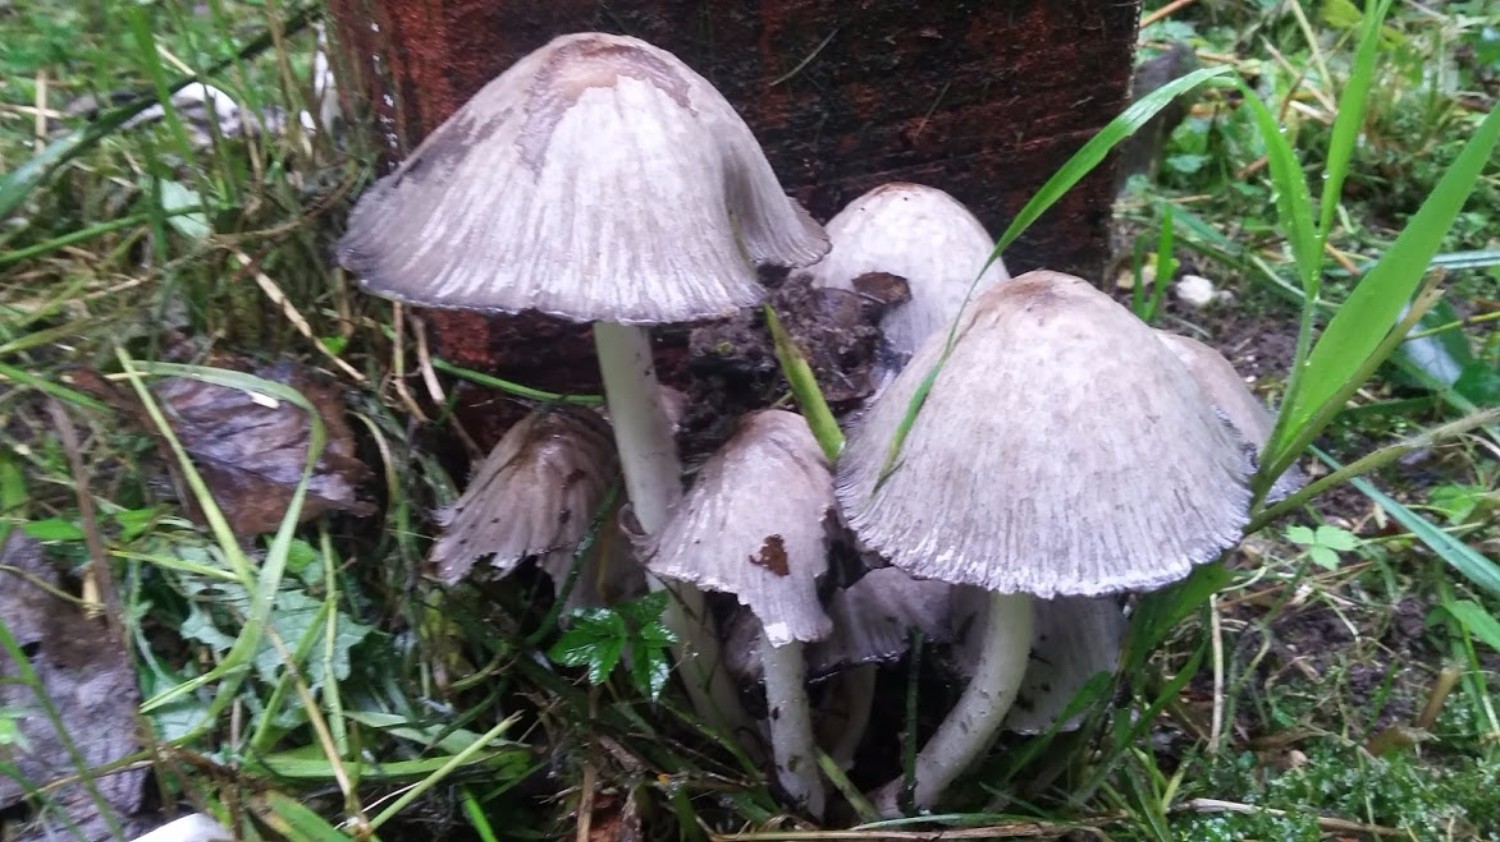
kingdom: Fungi
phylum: Basidiomycota
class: Agaricomycetes
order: Agaricales
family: Psathyrellaceae
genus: Coprinopsis
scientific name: Coprinopsis atramentaria
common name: almindelig blækhat
